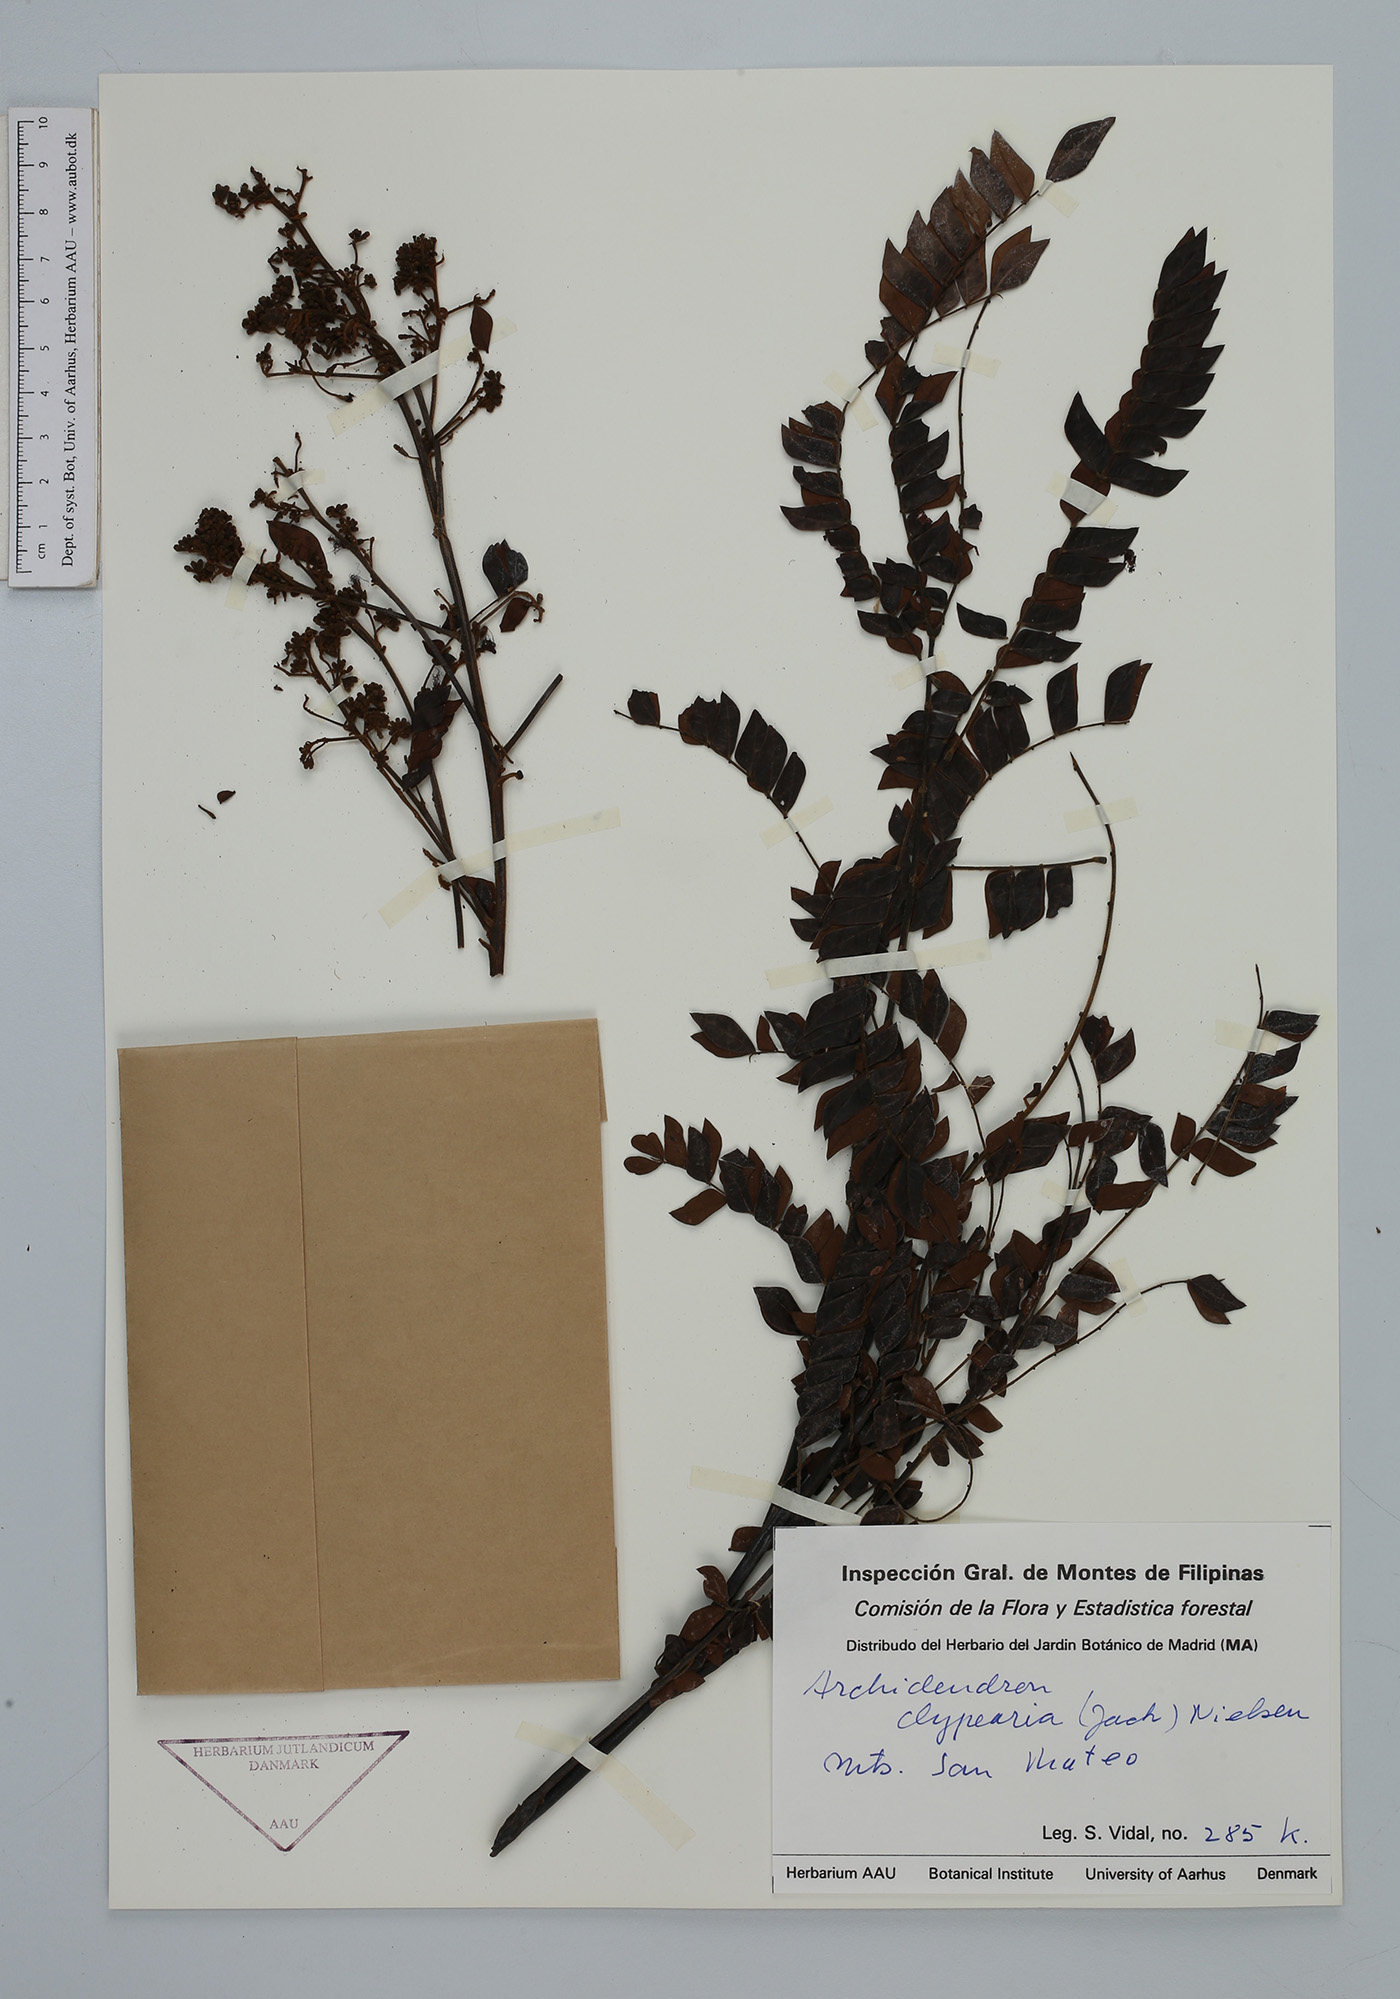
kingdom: Plantae
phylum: Tracheophyta
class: Magnoliopsida
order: Fabales
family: Fabaceae
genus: Archidendron
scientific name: Archidendron clypearia
